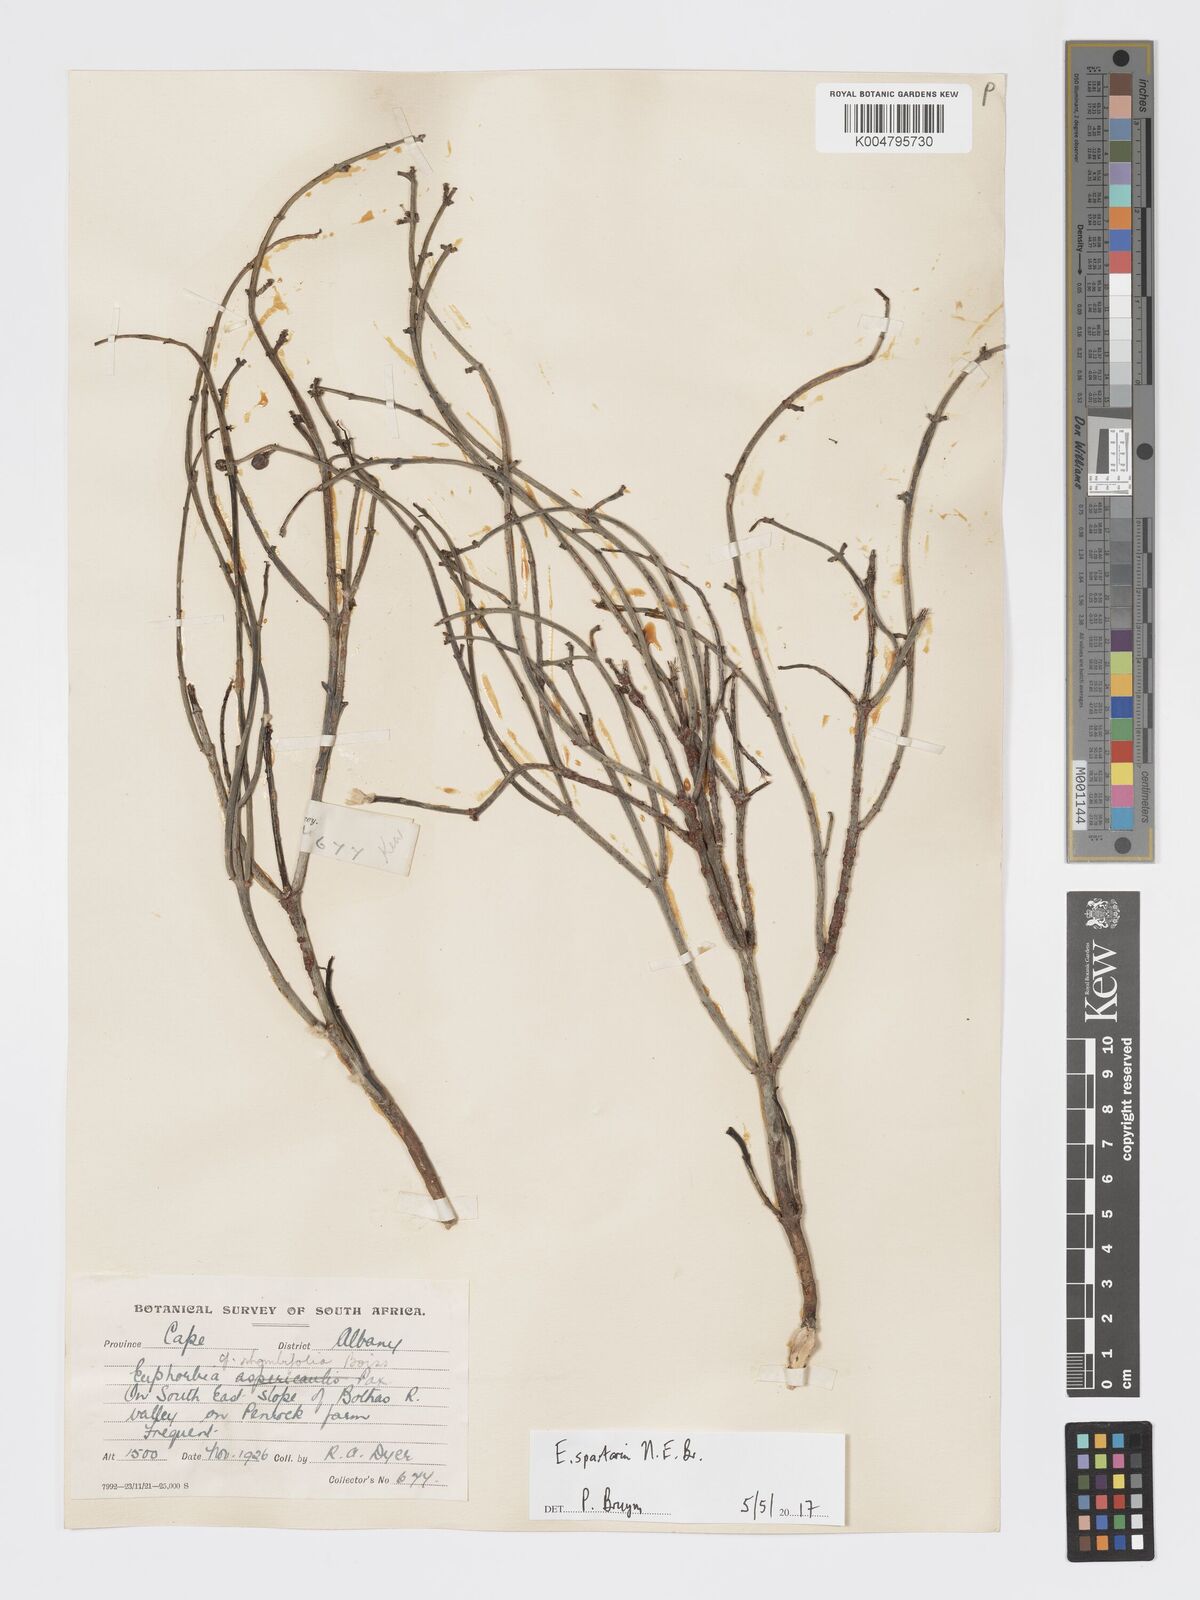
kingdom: Plantae
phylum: Tracheophyta
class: Magnoliopsida
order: Malpighiales
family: Euphorbiaceae
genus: Euphorbia
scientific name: Euphorbia spartaria
